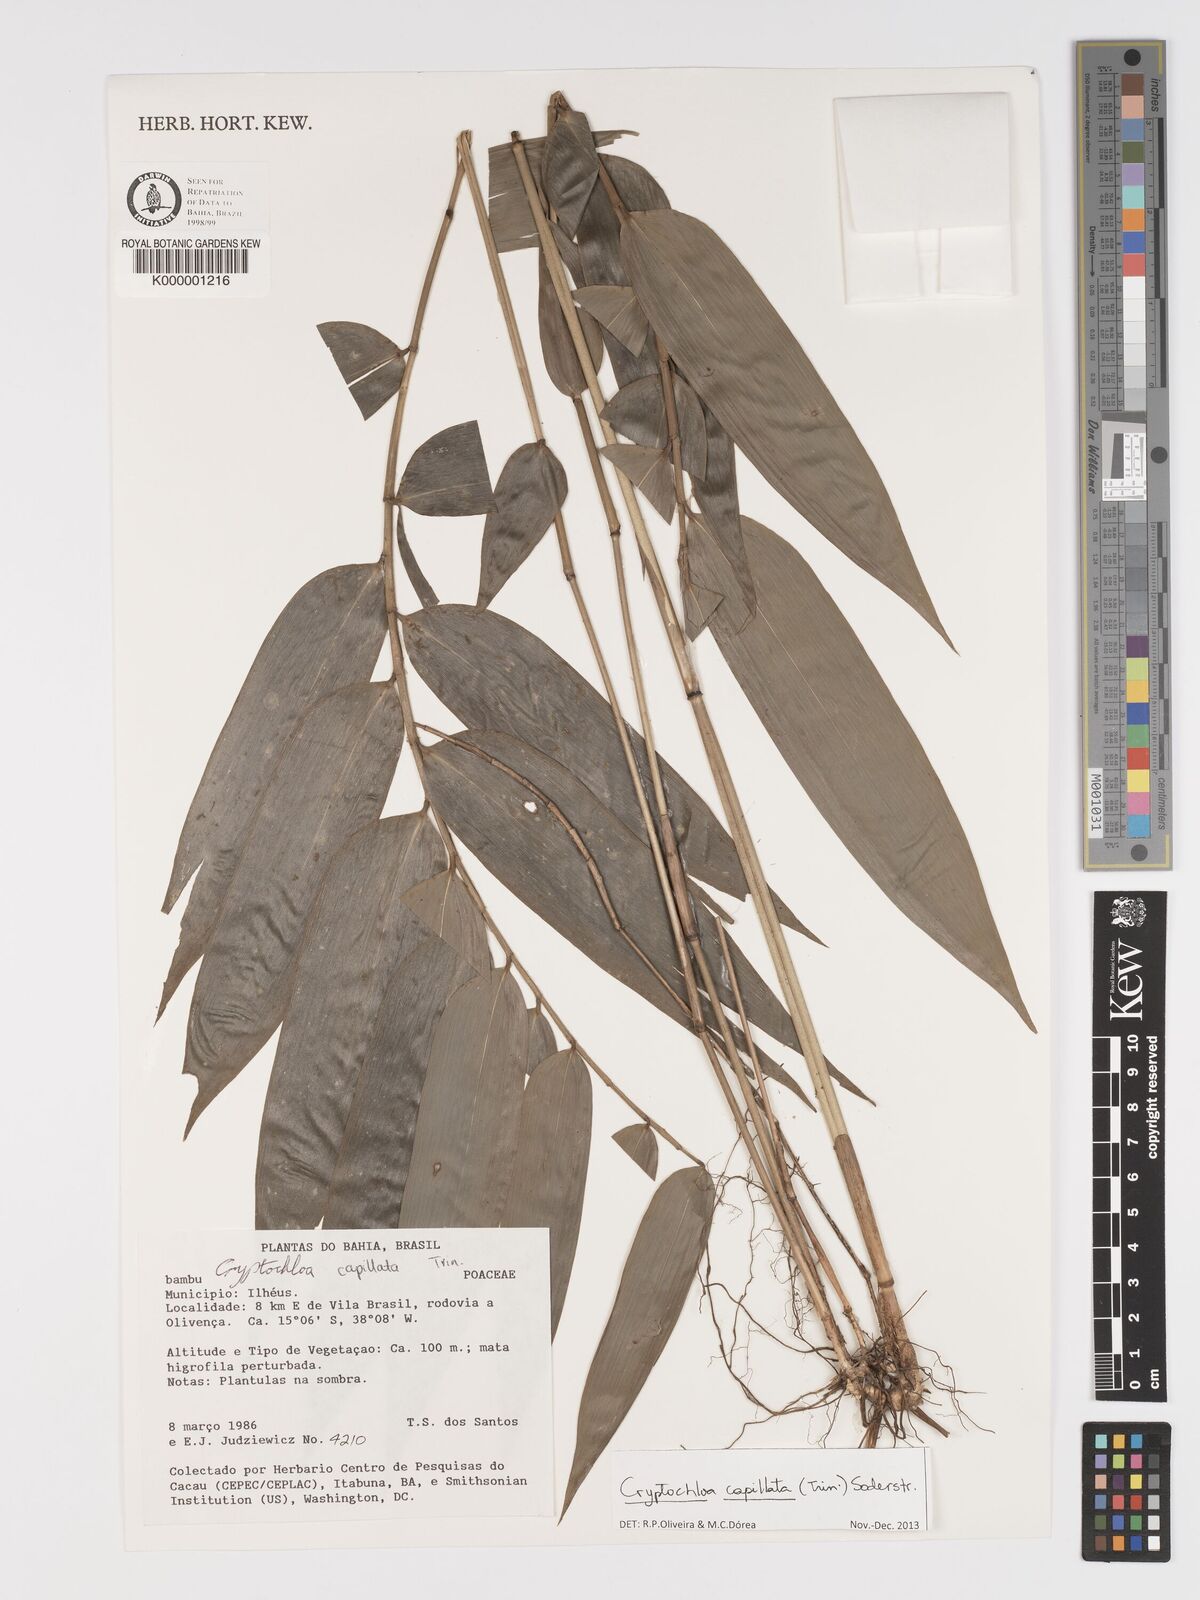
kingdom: Plantae
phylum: Tracheophyta
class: Liliopsida
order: Poales
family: Poaceae
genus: Cryptochloa
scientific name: Cryptochloa capillata
